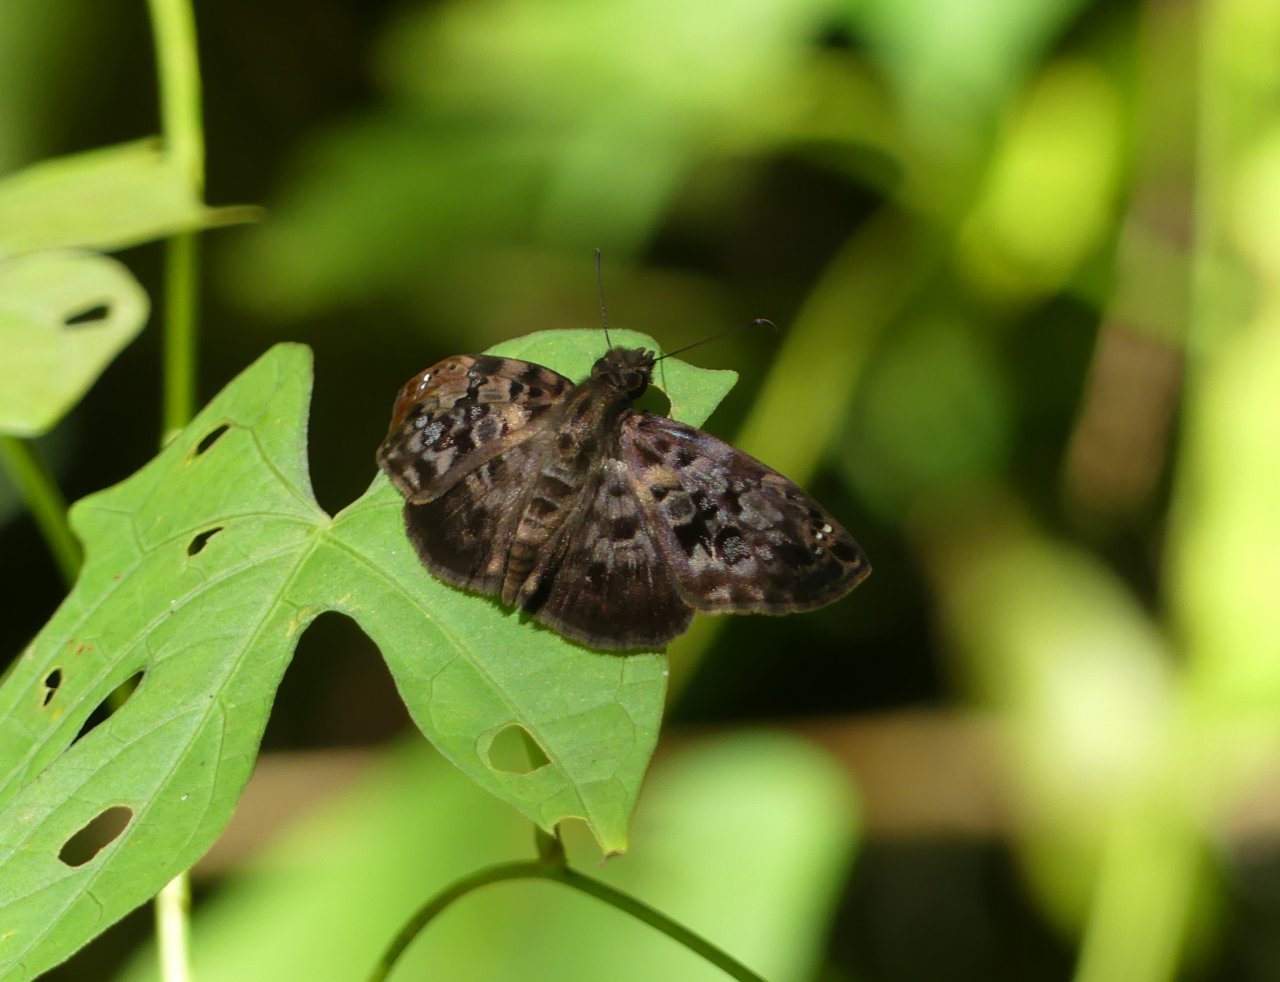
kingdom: Animalia
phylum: Arthropoda
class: Insecta
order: Lepidoptera
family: Hesperiidae
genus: Gorgythion
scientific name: Gorgythion begga
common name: Variegated Skipper
